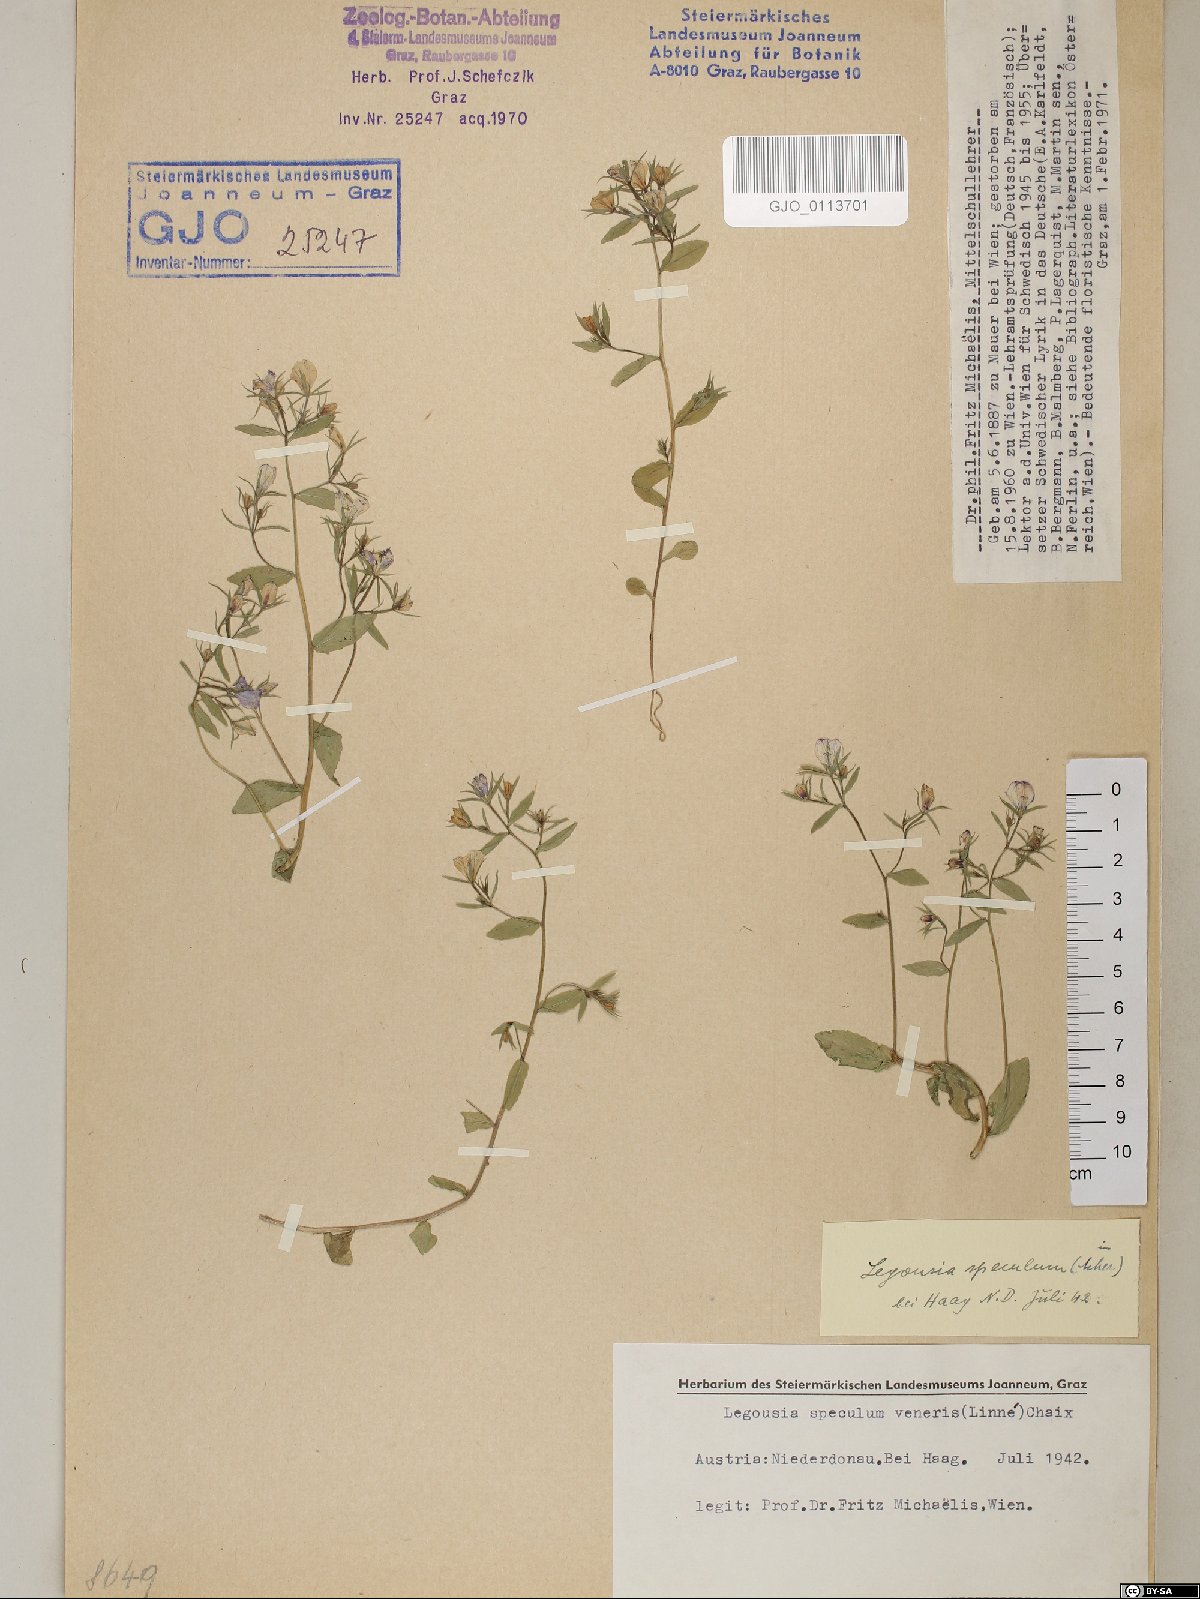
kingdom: Plantae
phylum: Tracheophyta
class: Magnoliopsida
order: Asterales
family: Campanulaceae
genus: Legousia
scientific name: Legousia speculum-veneris
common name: Large venus's-looking-glass
